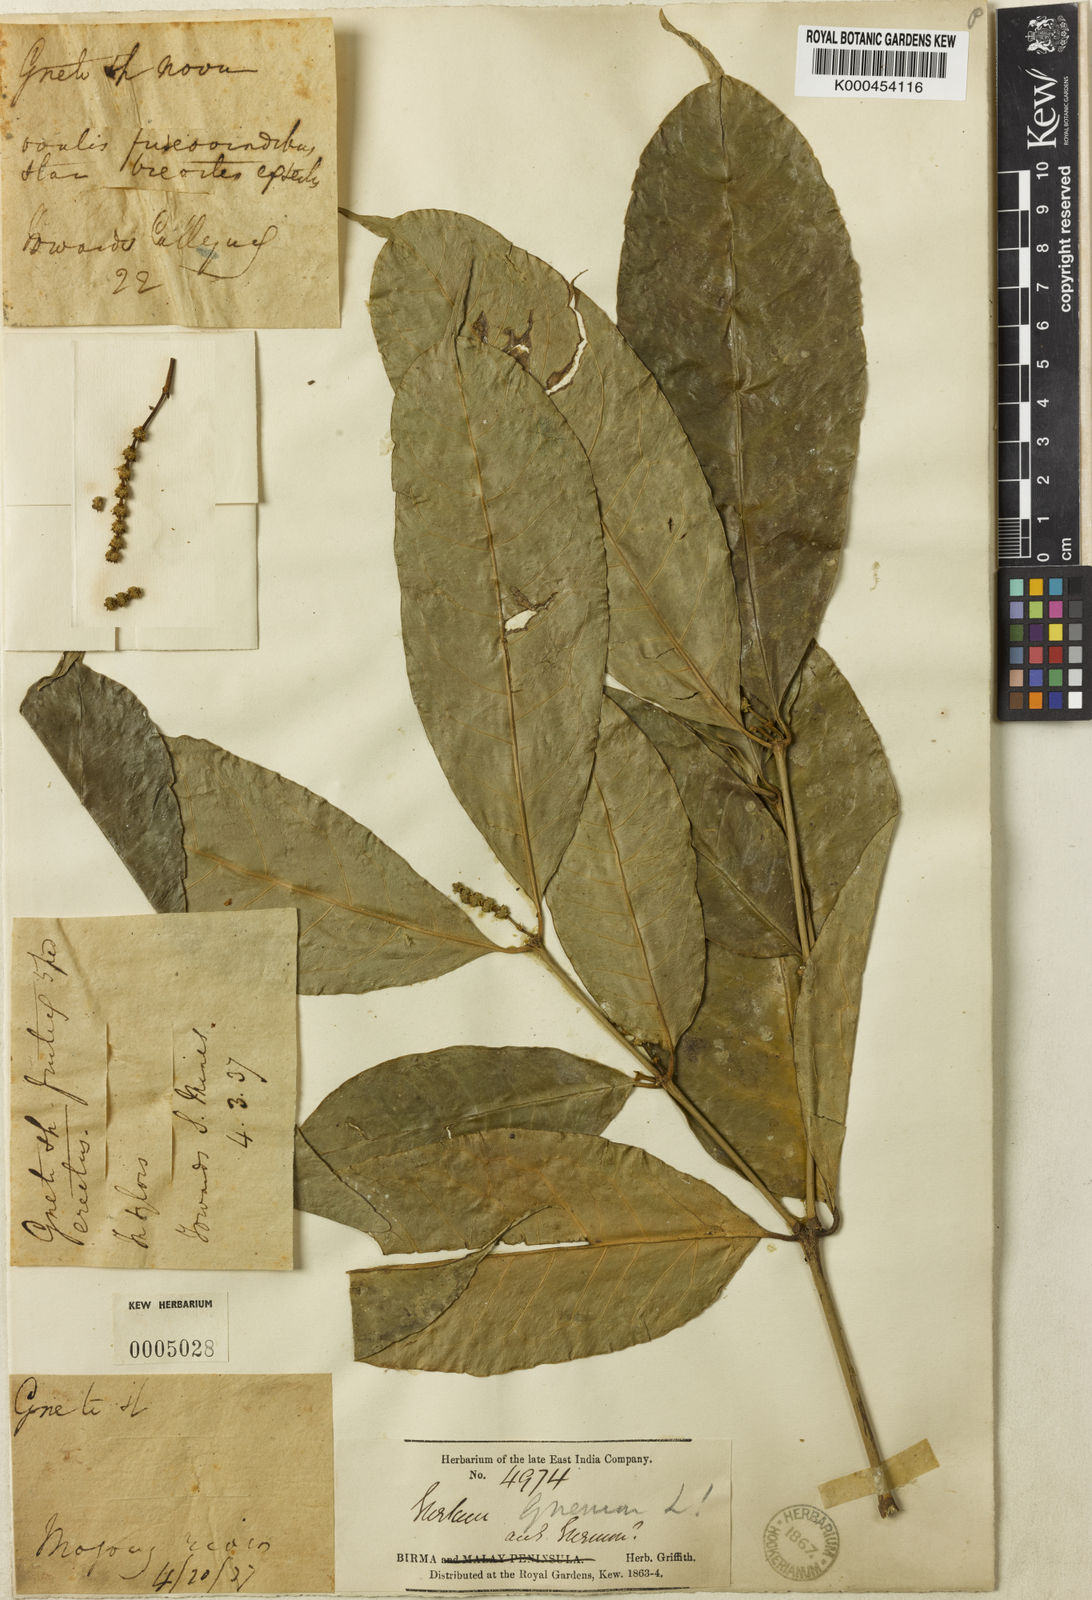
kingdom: Plantae
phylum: Tracheophyta
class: Gnetopsida
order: Gnetales
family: Gnetaceae
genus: Gnetum
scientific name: Gnetum gnemon
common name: Spanish joint-fir
